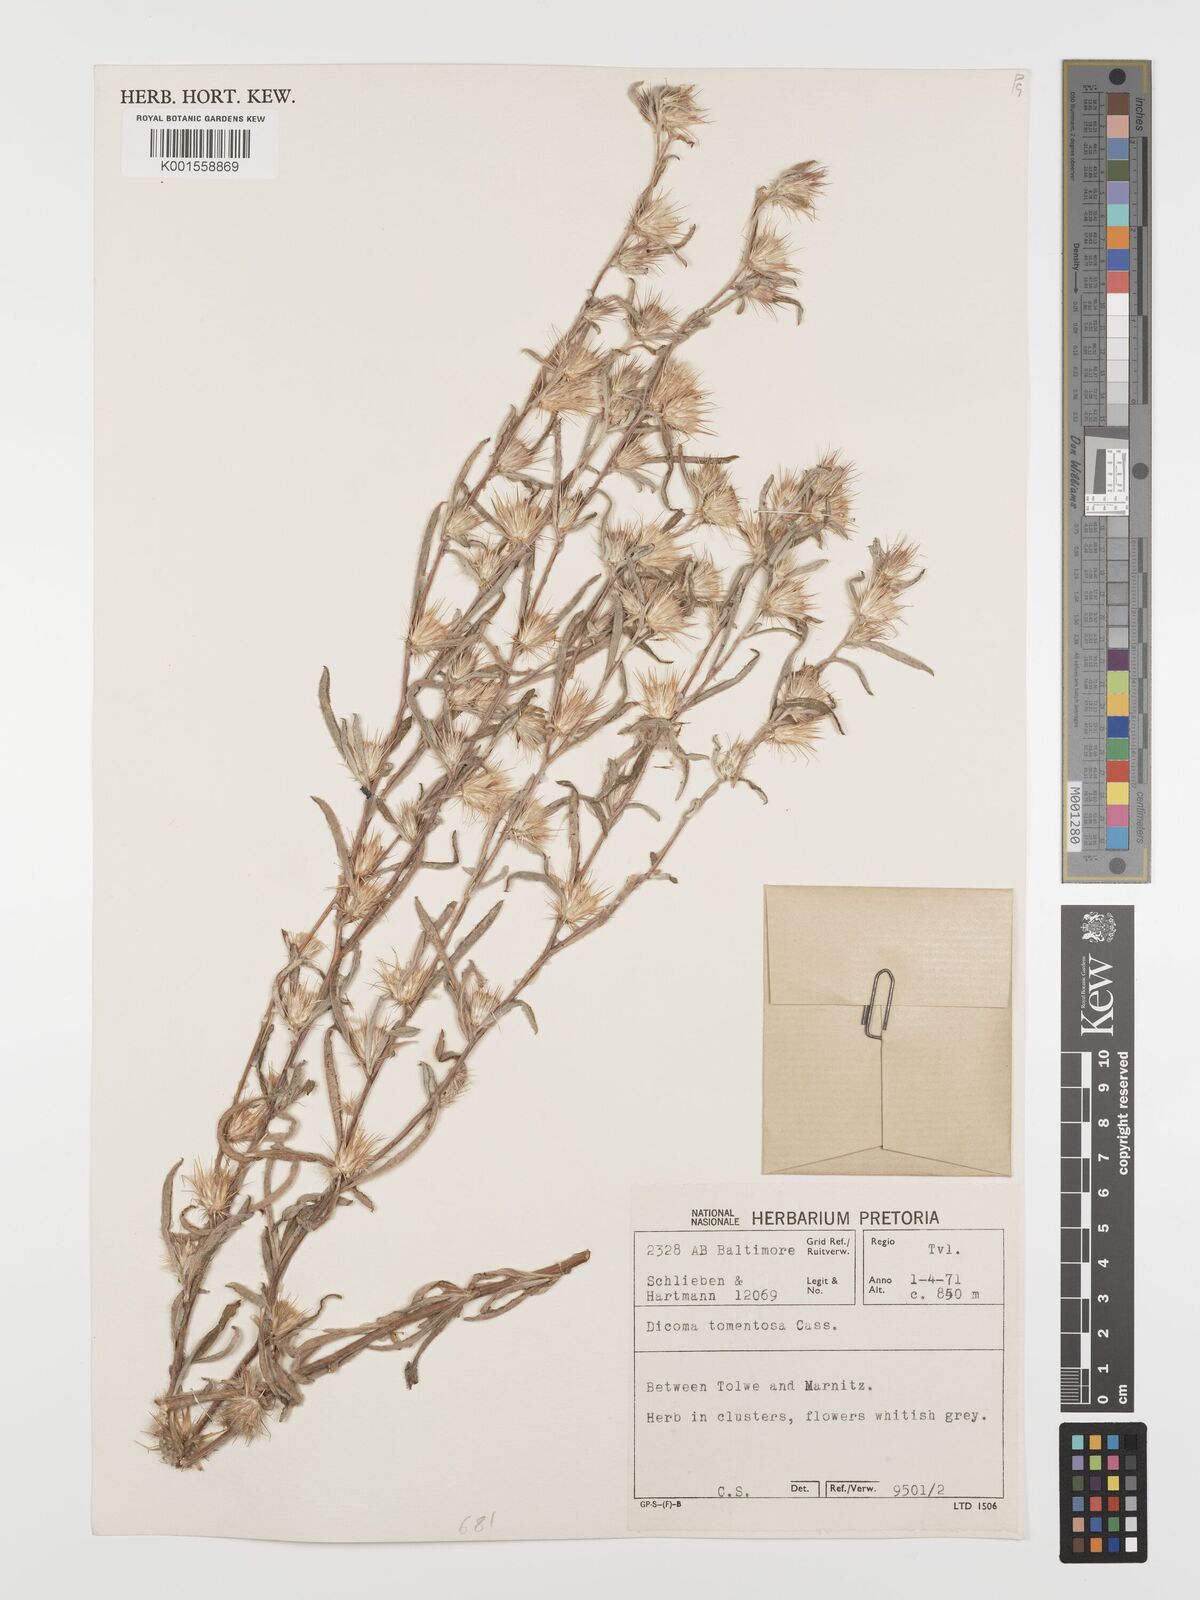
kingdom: Plantae
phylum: Tracheophyta
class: Magnoliopsida
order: Asterales
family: Asteraceae
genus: Dicoma
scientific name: Dicoma tomentosa
